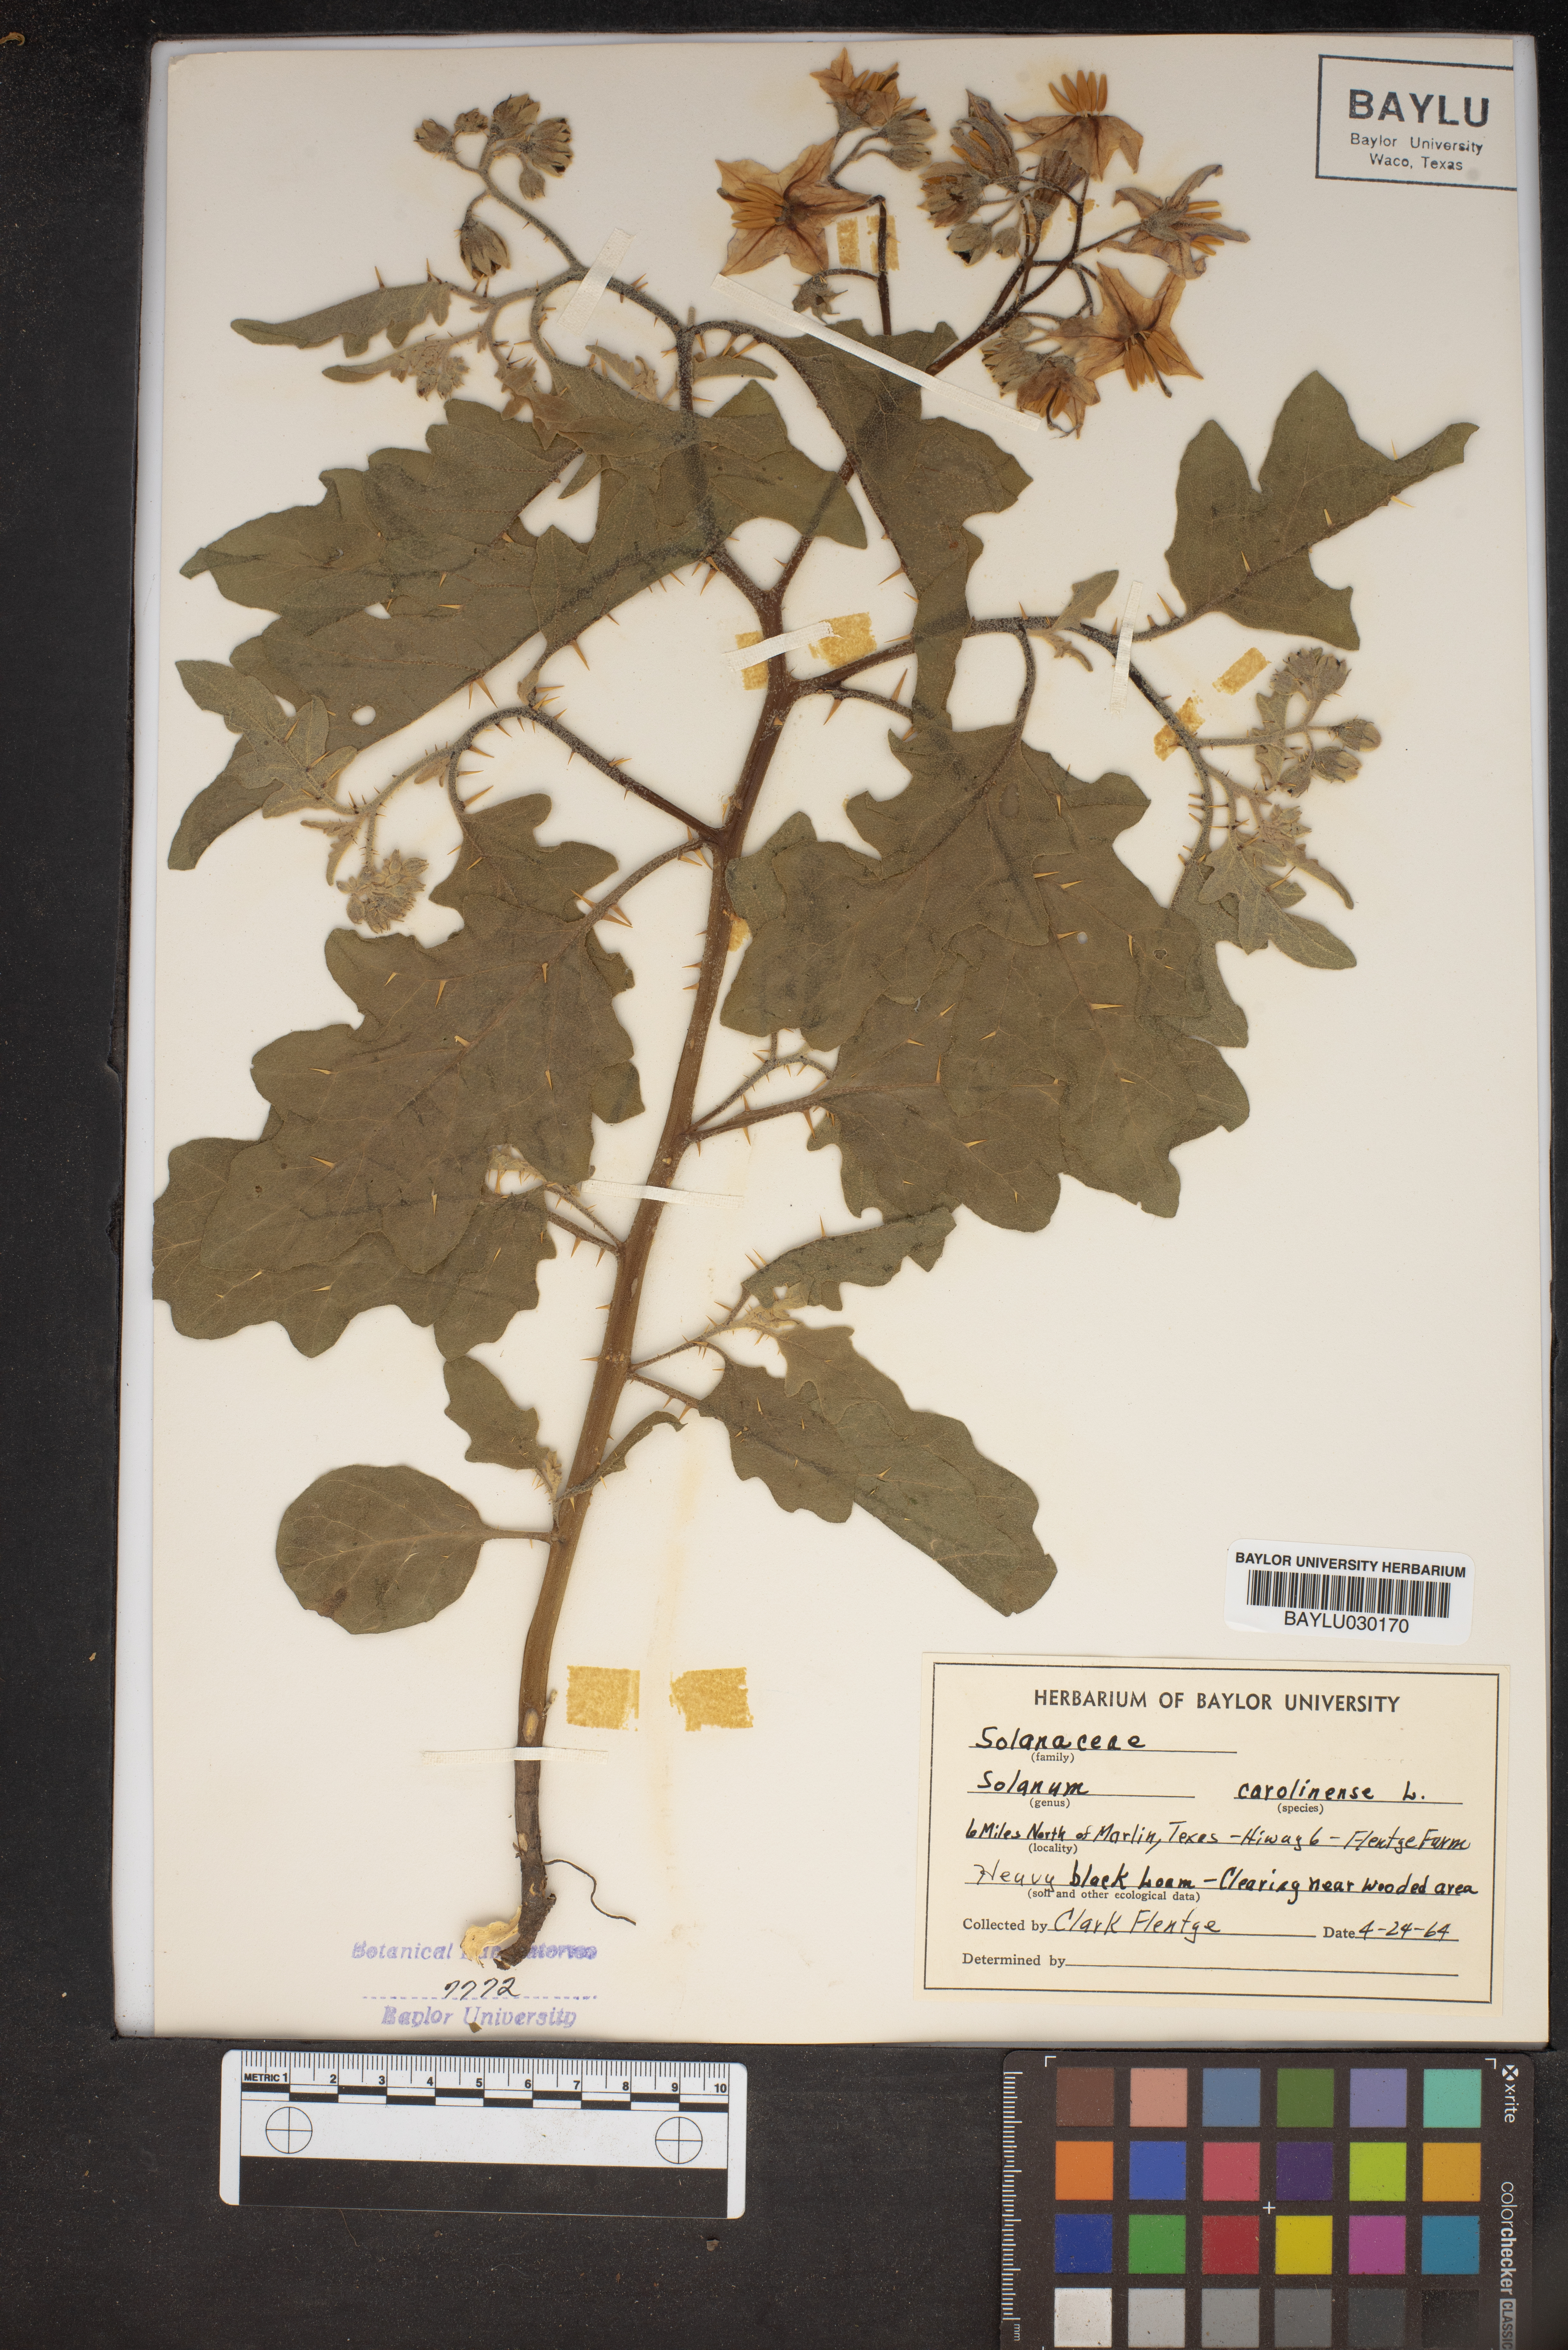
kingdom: Plantae
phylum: Tracheophyta
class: Magnoliopsida
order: Solanales
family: Solanaceae
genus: Solanum
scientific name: Solanum carolinense
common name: Horse-nettle
